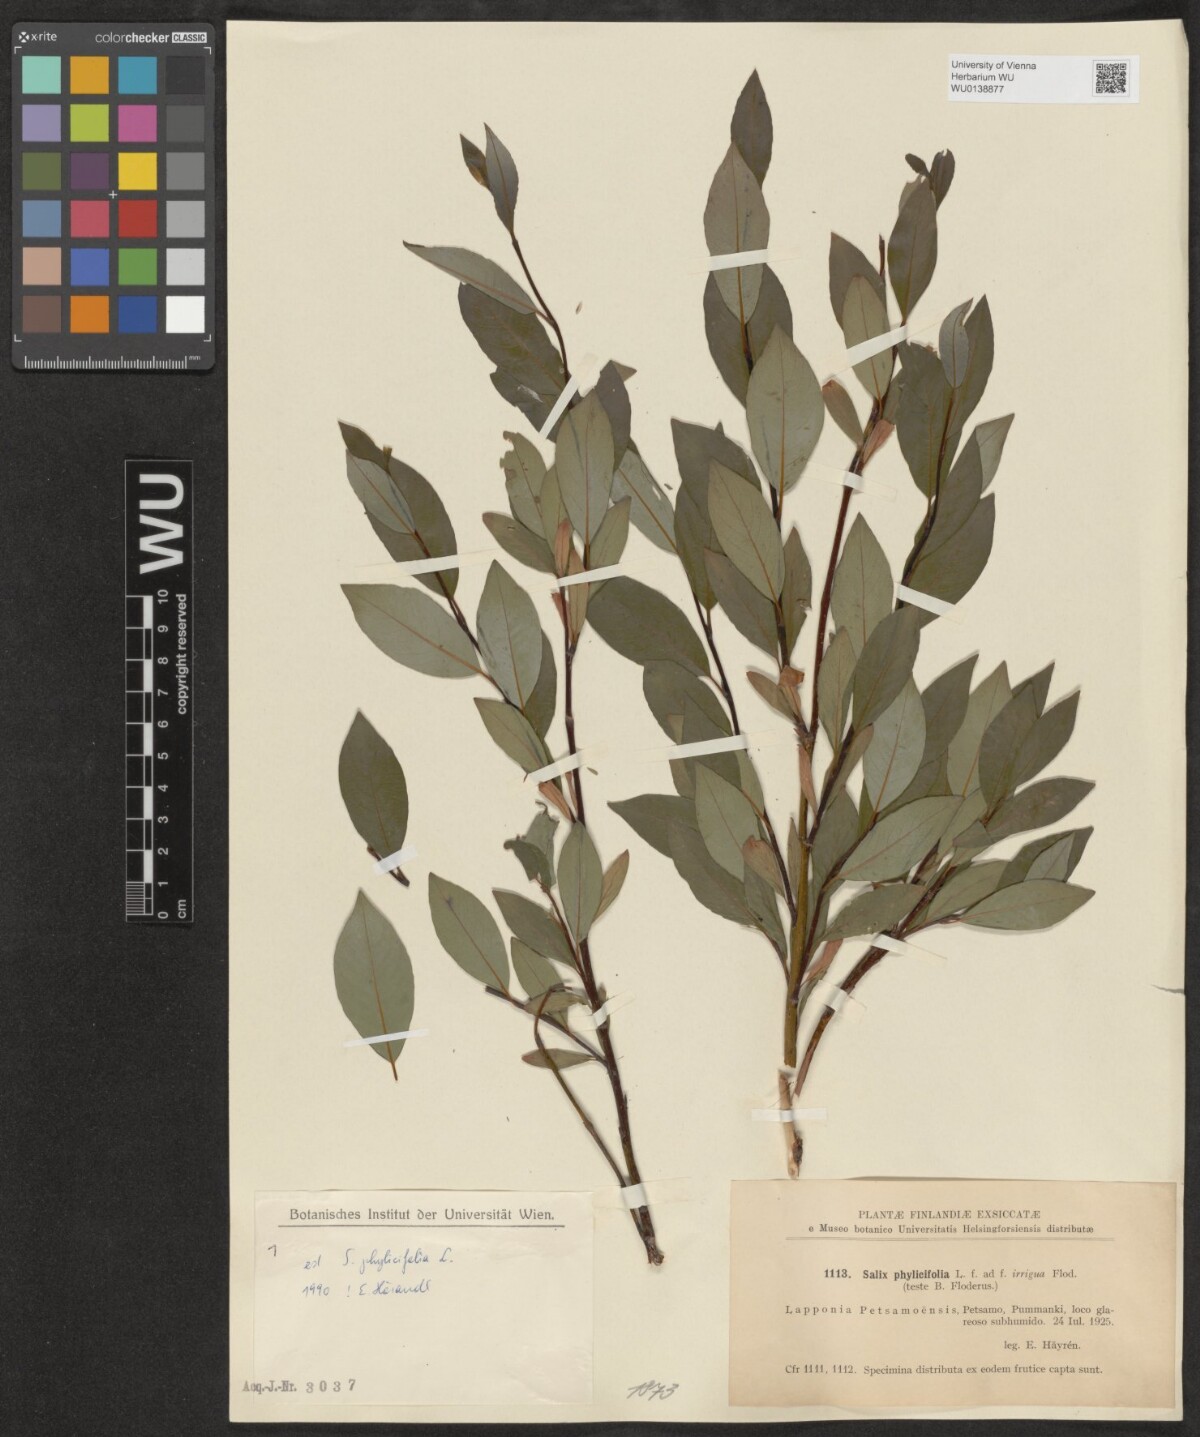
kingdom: Plantae
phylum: Tracheophyta
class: Magnoliopsida
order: Malpighiales
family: Salicaceae
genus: Salix
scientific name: Salix phylicifolia
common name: Tea-leaved willow
